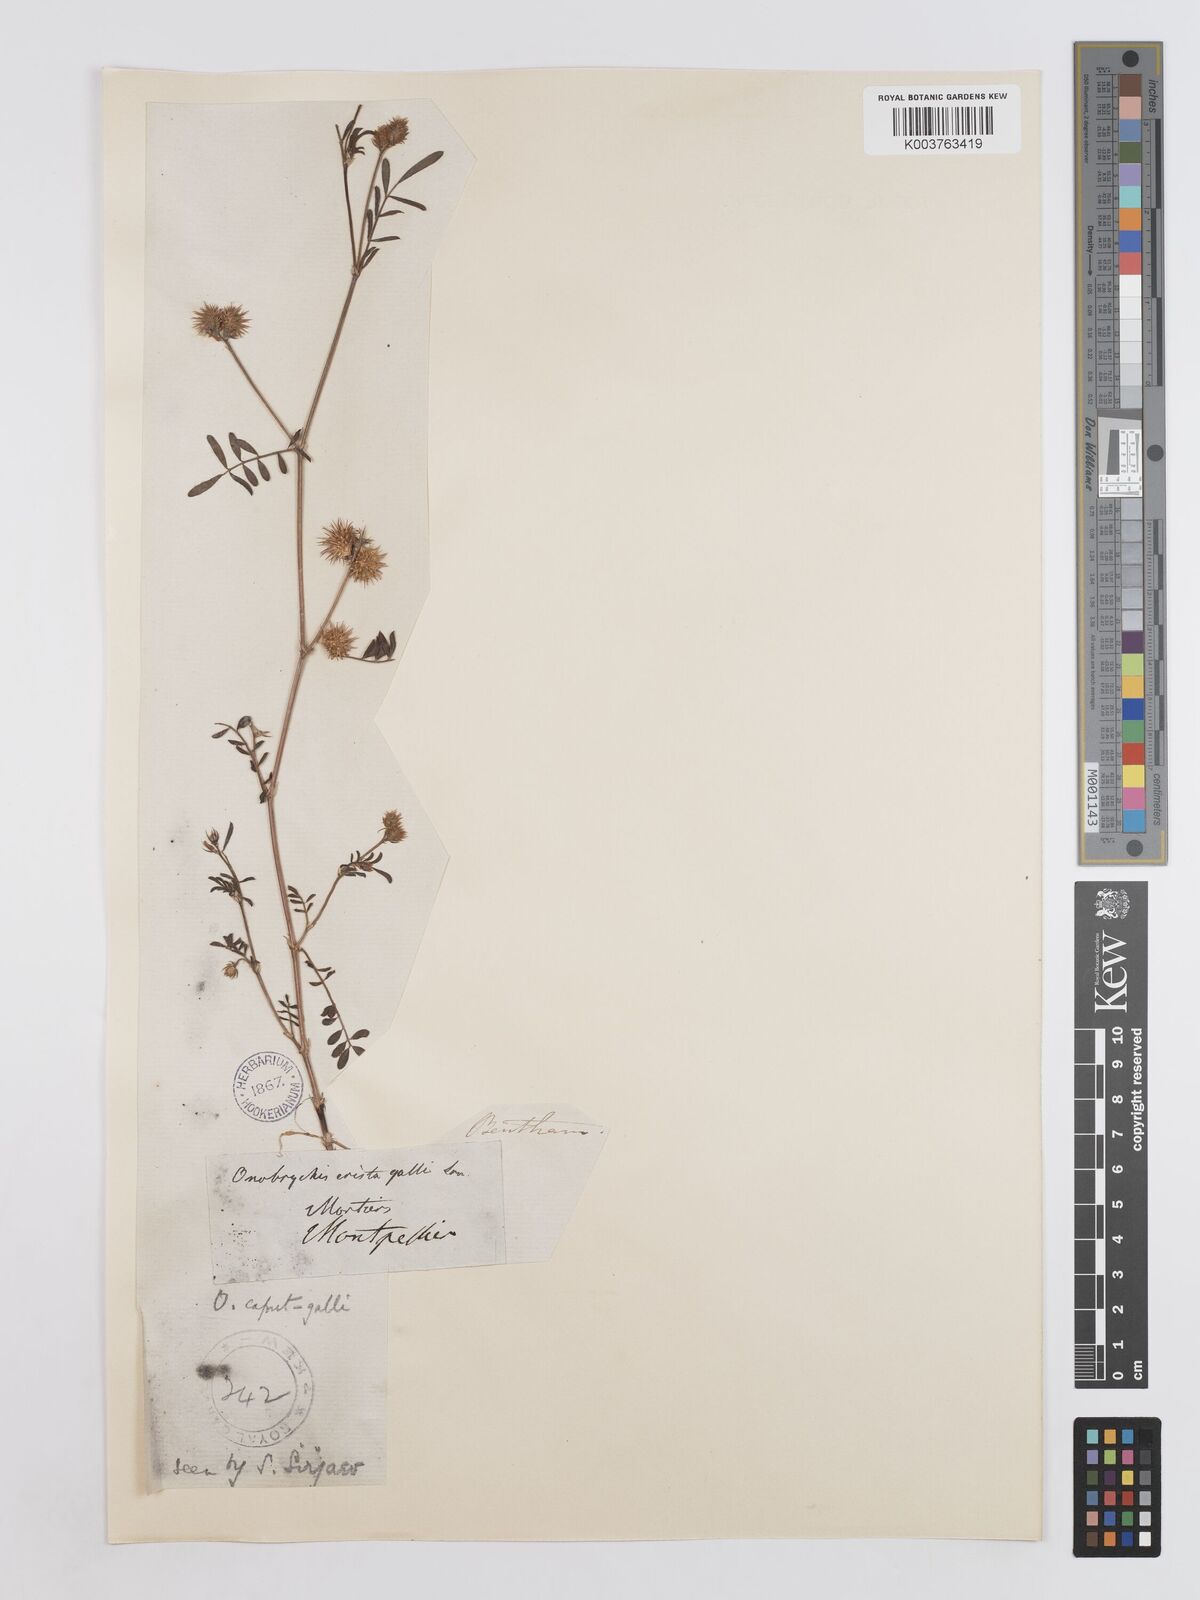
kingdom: Plantae
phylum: Tracheophyta
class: Magnoliopsida
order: Fabales
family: Fabaceae
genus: Onobrychis
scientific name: Onobrychis caput-galli
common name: Cockscomb sainfoin
